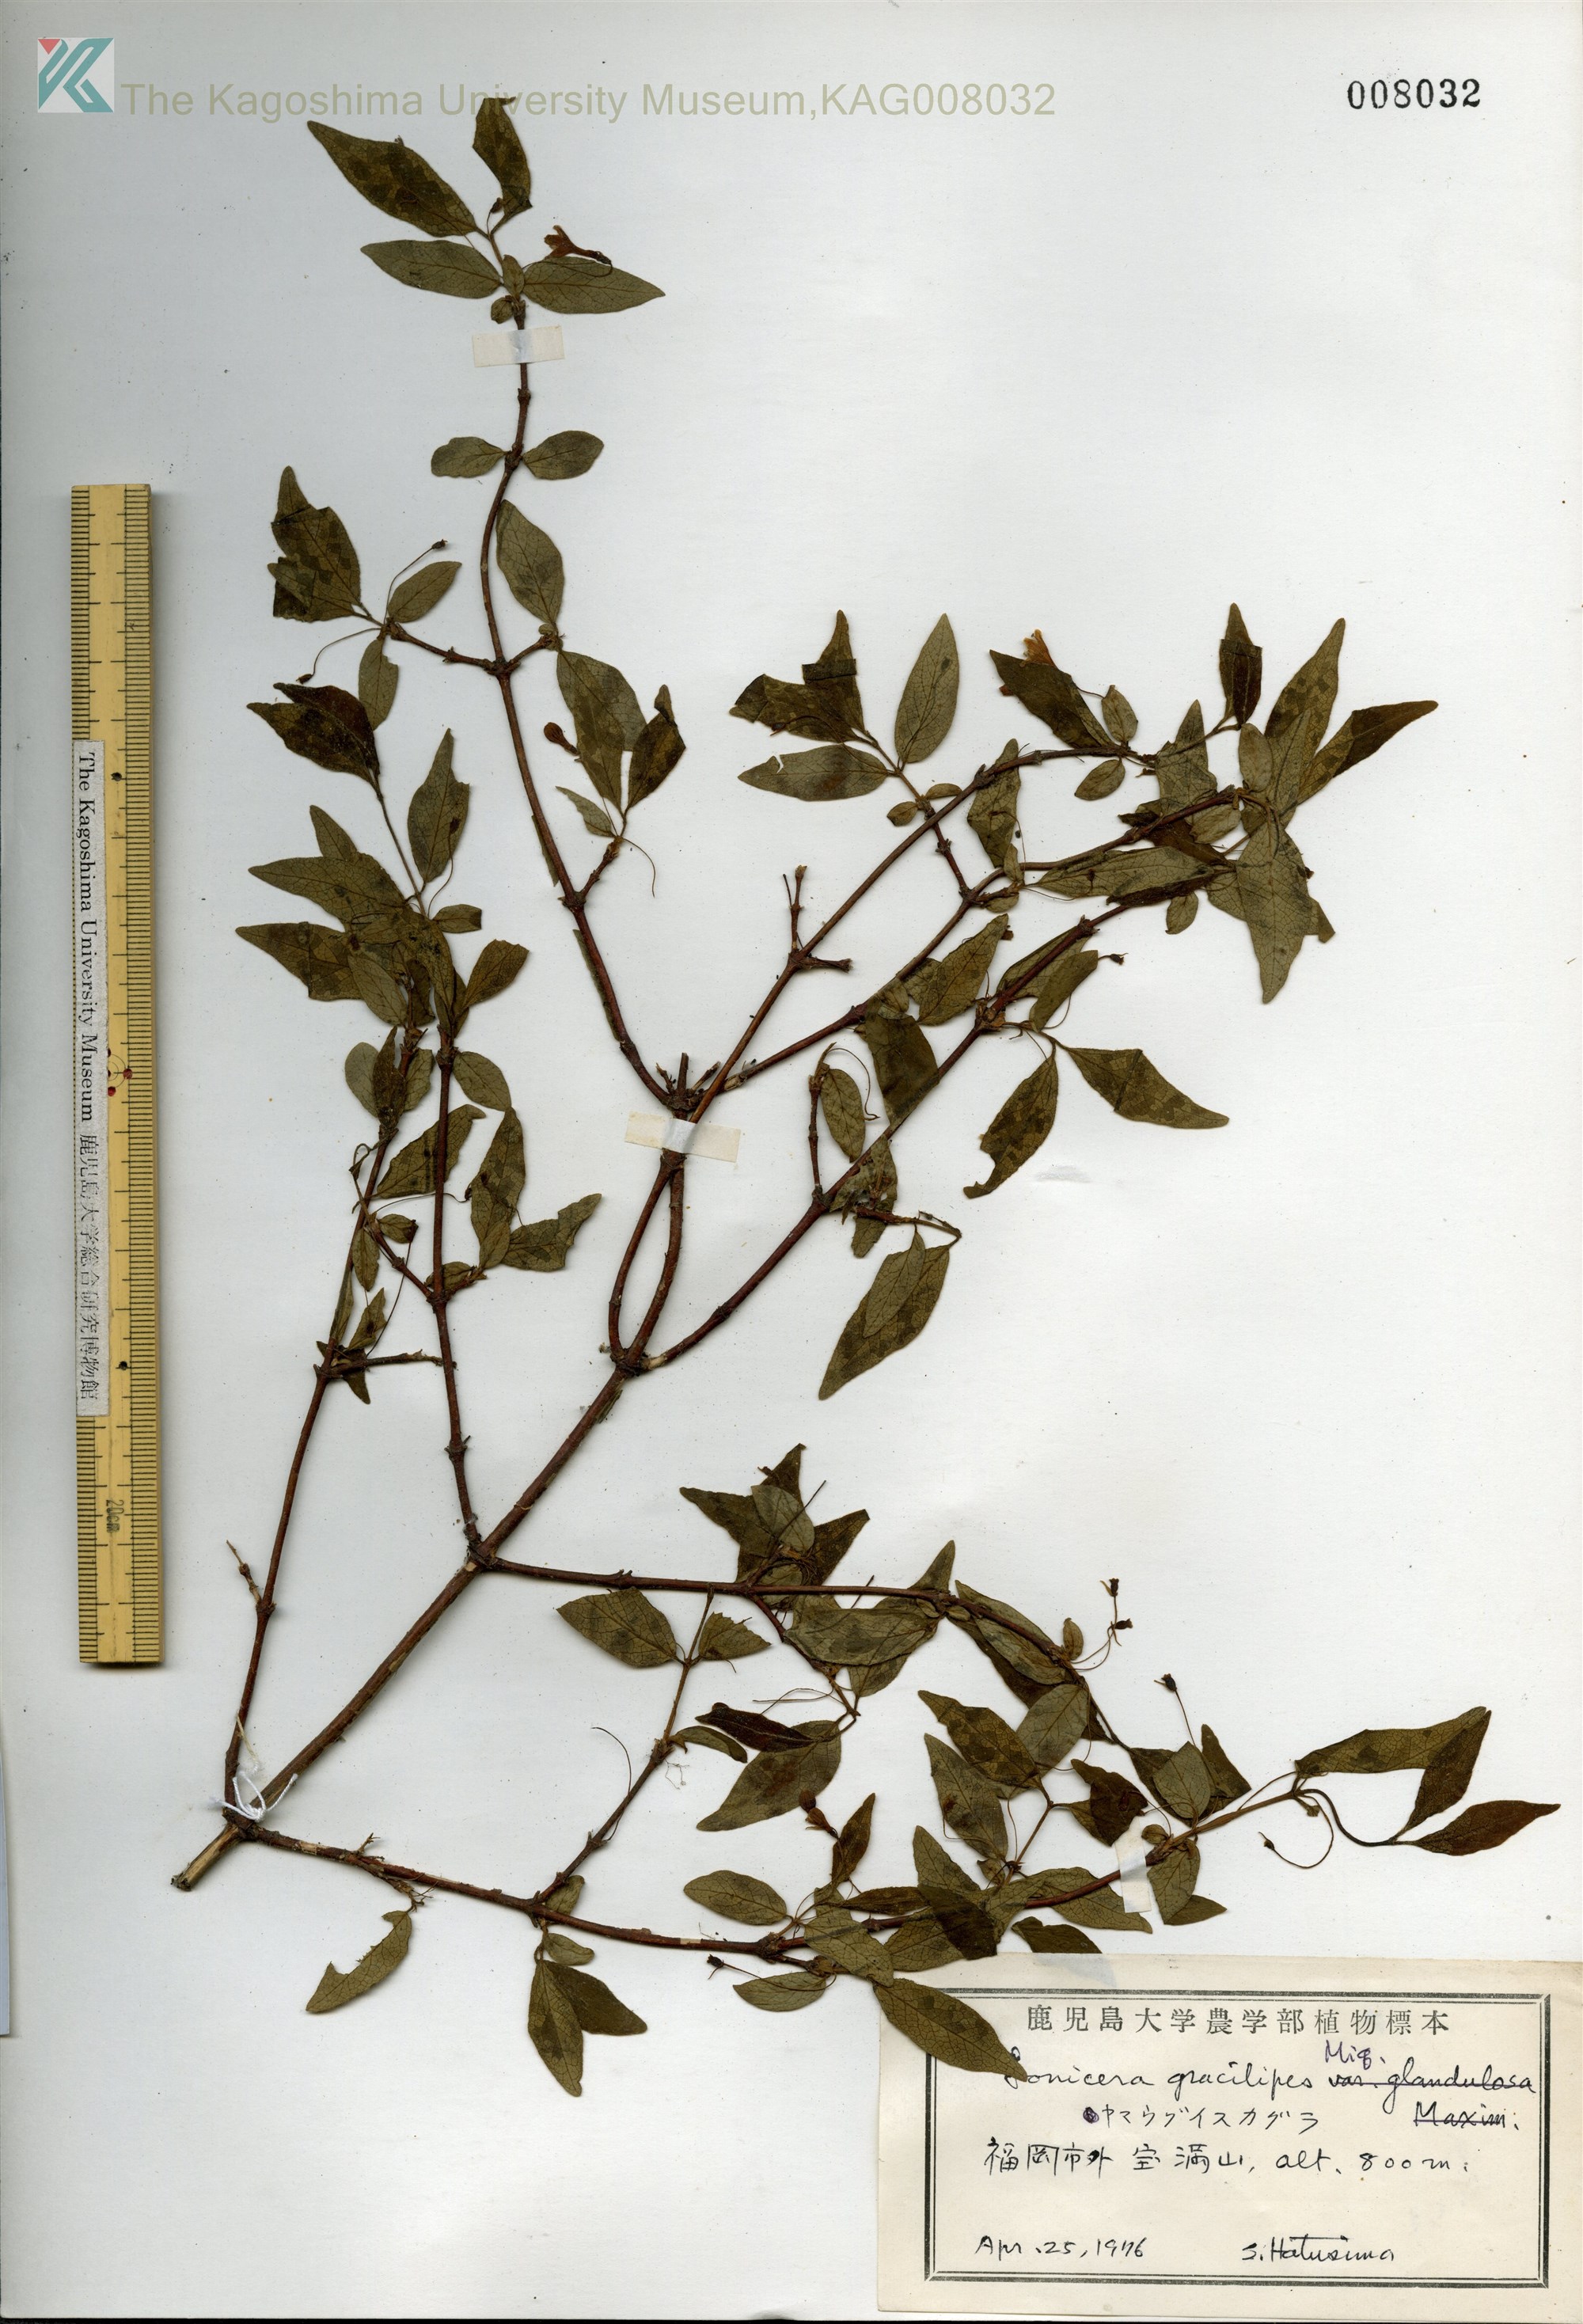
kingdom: Plantae
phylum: Tracheophyta
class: Magnoliopsida
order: Dipsacales
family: Caprifoliaceae
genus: Lonicera
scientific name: Lonicera gracilipes
